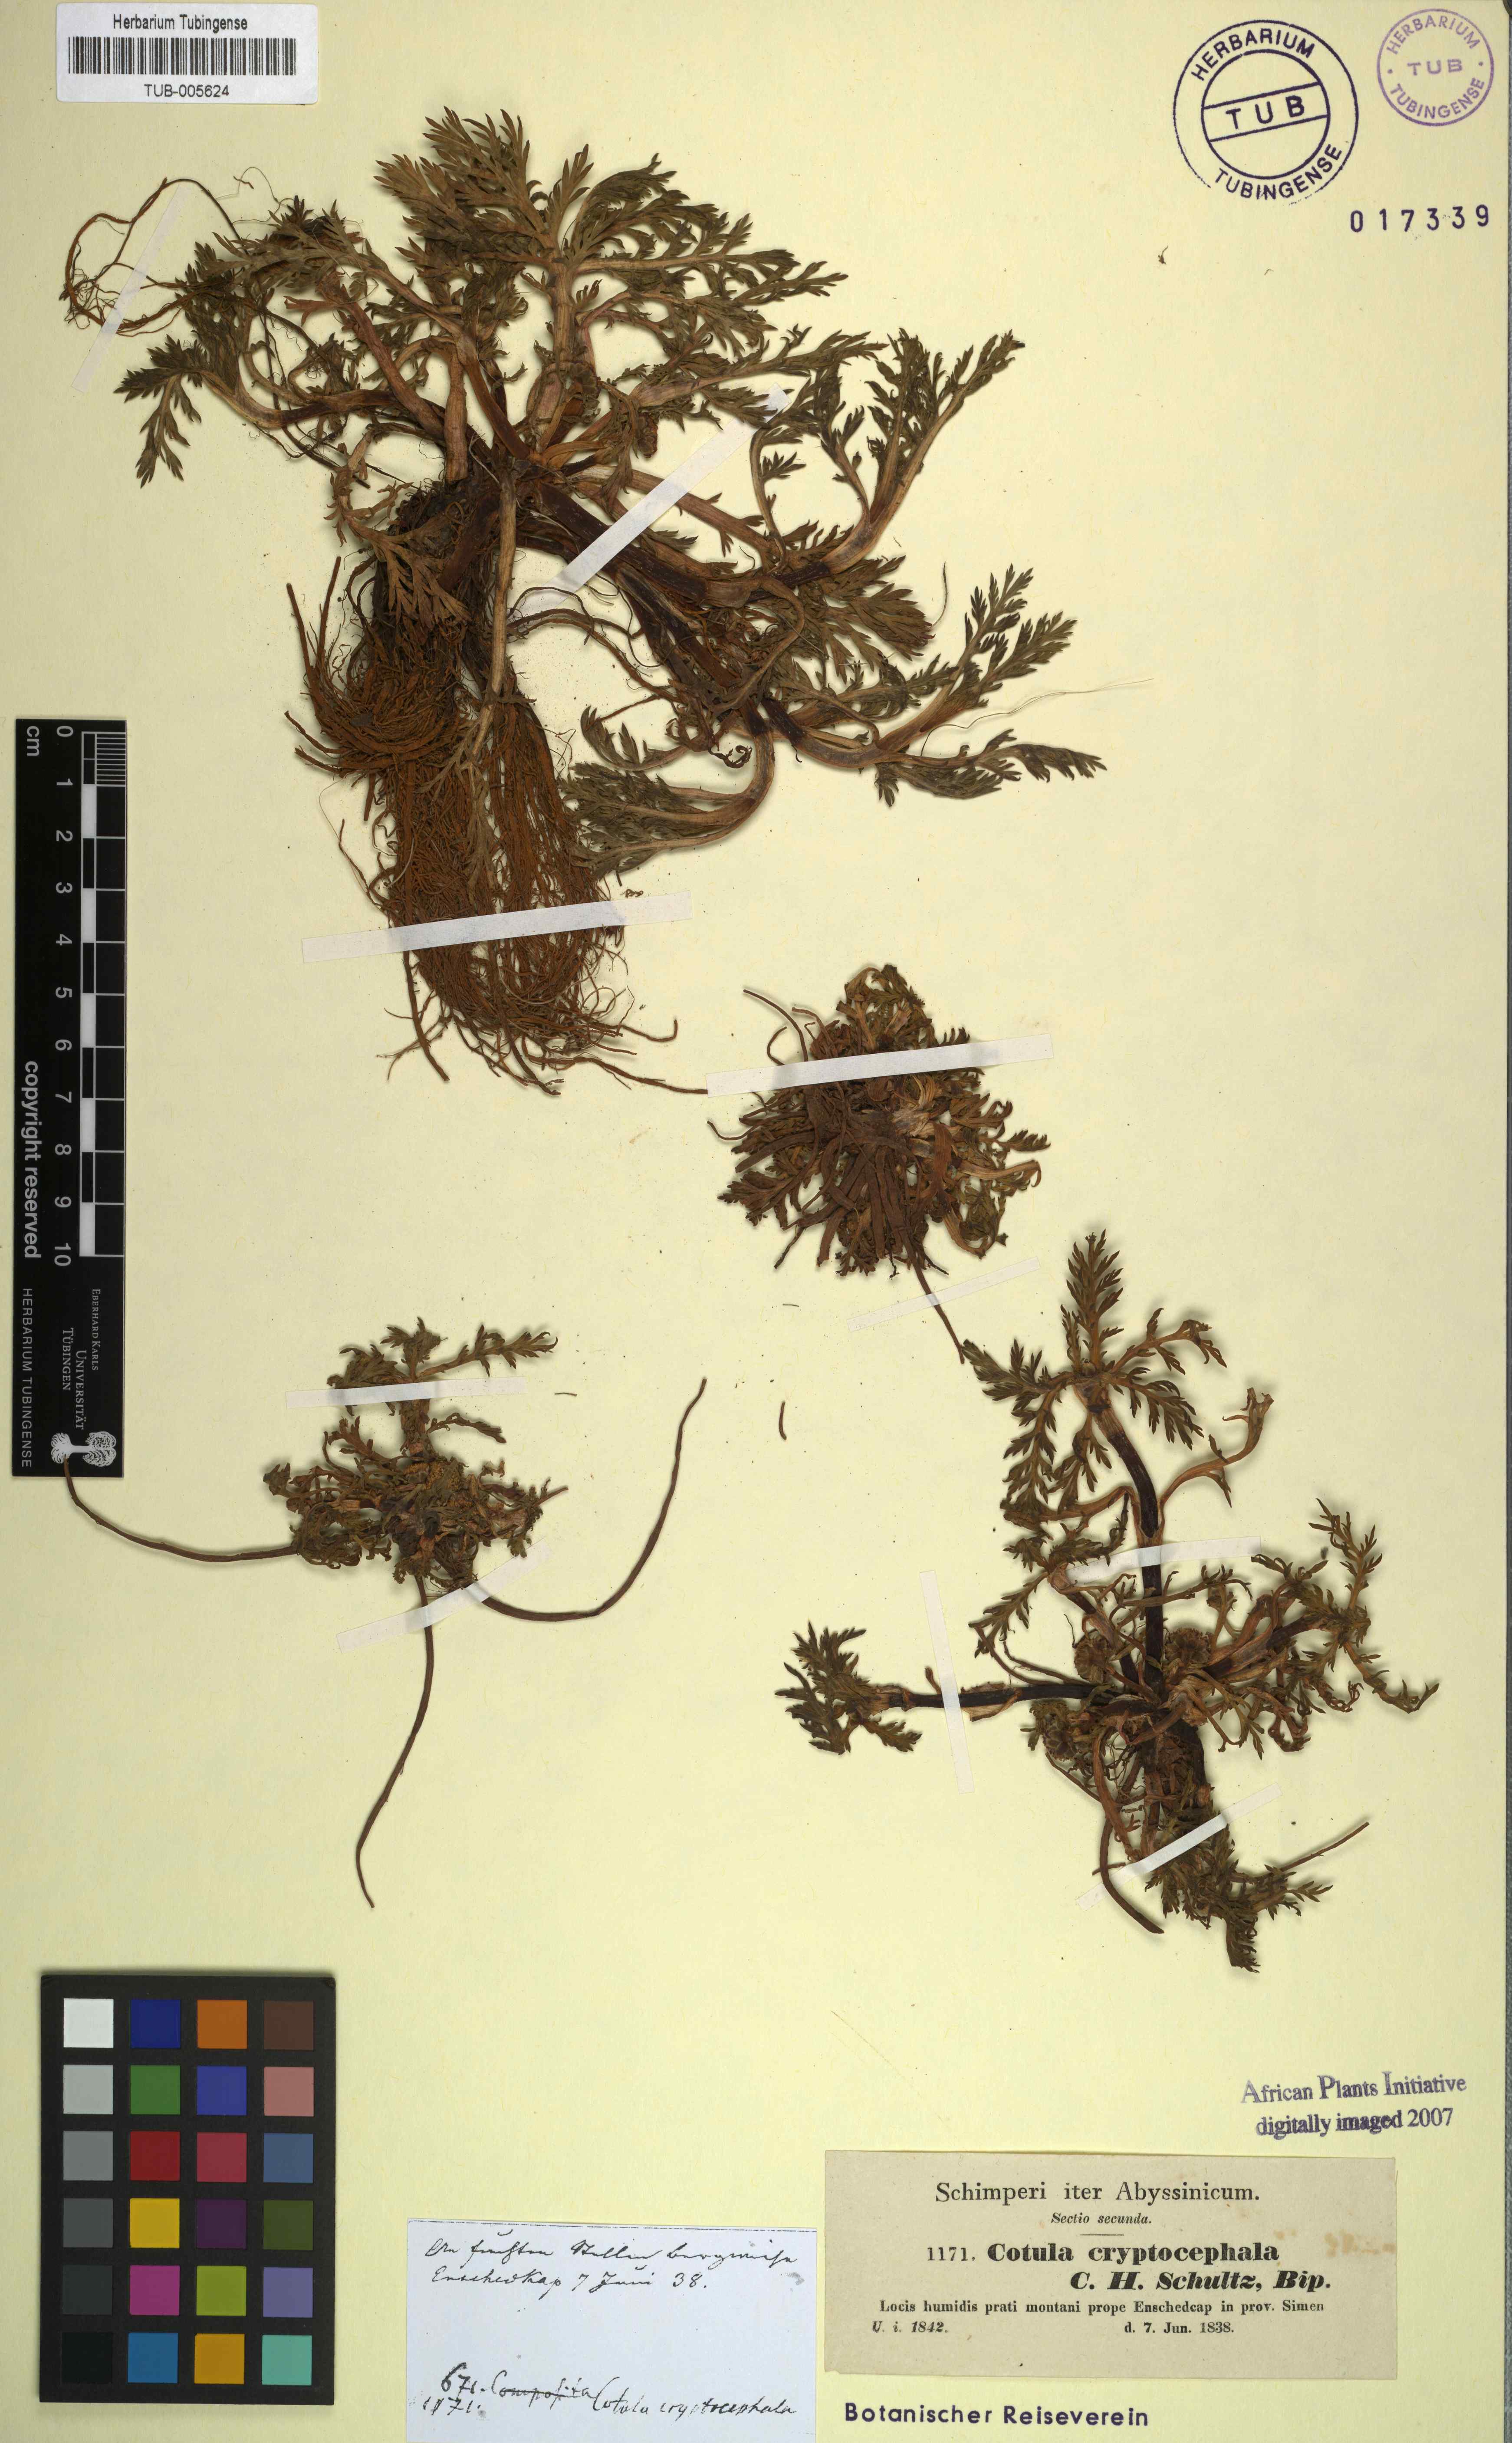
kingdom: Plantae
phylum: Tracheophyta
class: Magnoliopsida
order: Asterales
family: Asteraceae
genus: Cotula
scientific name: Cotula cryptocephala
